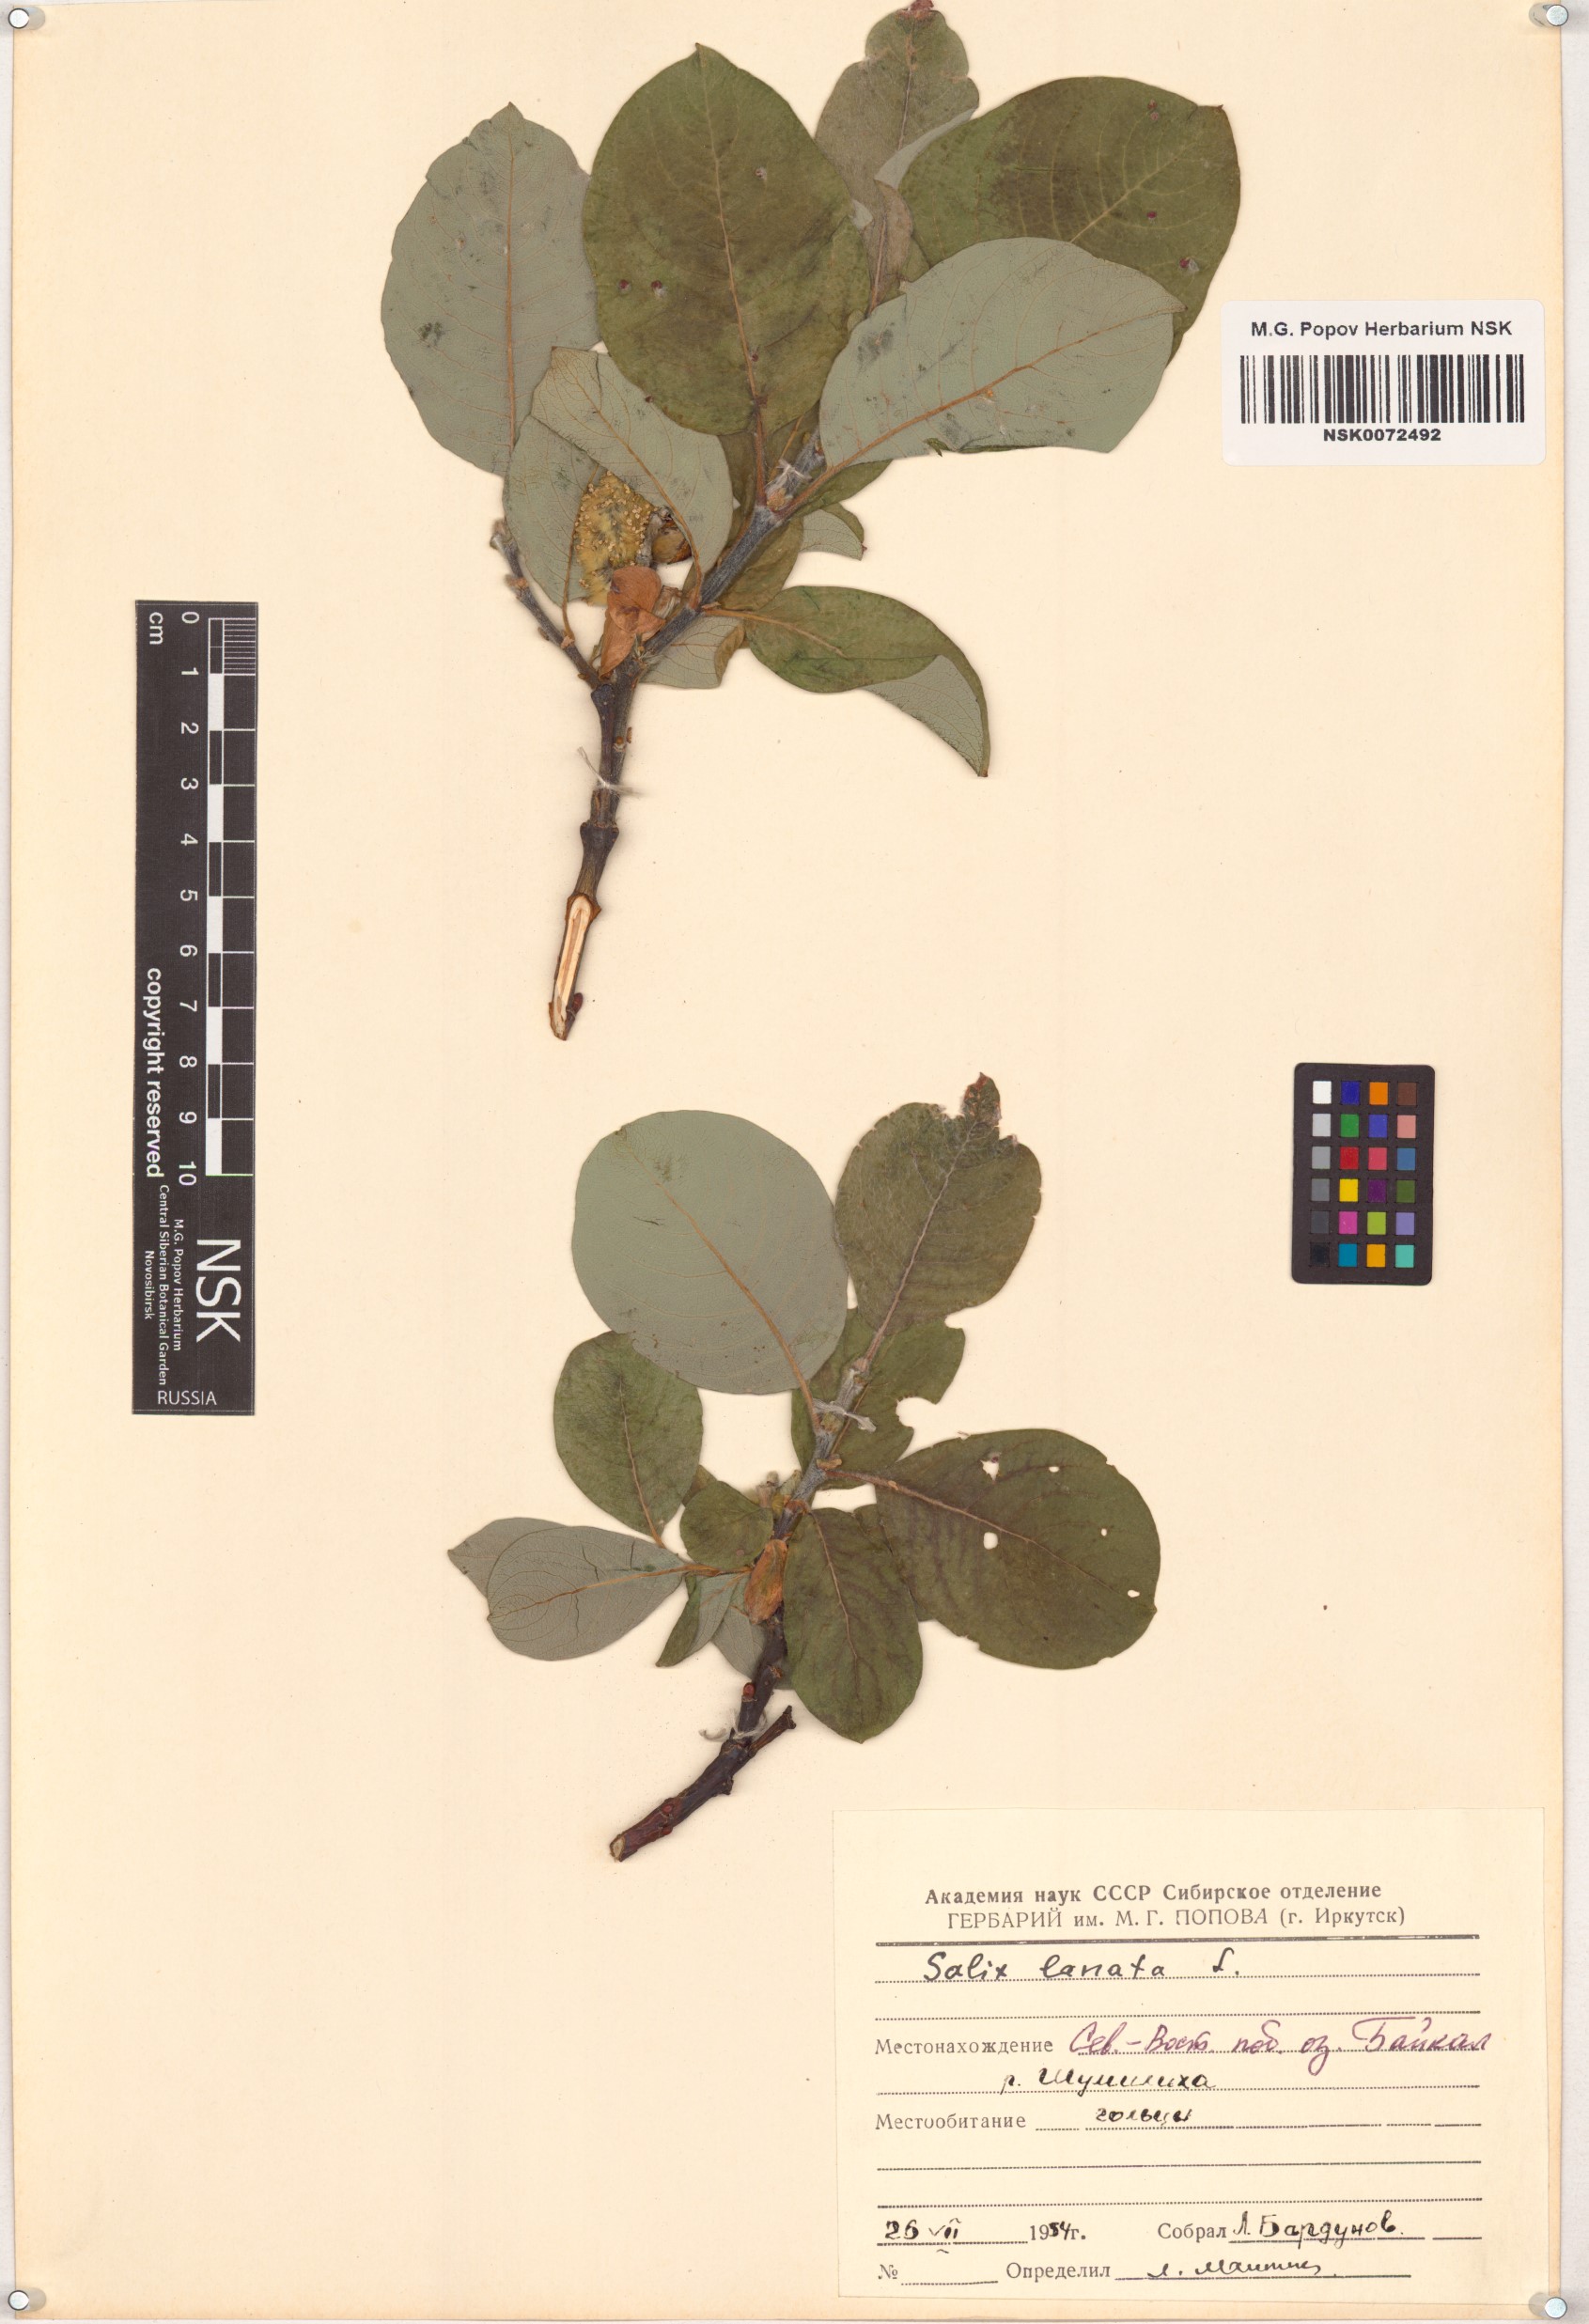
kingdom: Plantae
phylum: Tracheophyta
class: Magnoliopsida
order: Malpighiales
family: Salicaceae
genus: Salix
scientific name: Salix lanata
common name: Woolly willow
